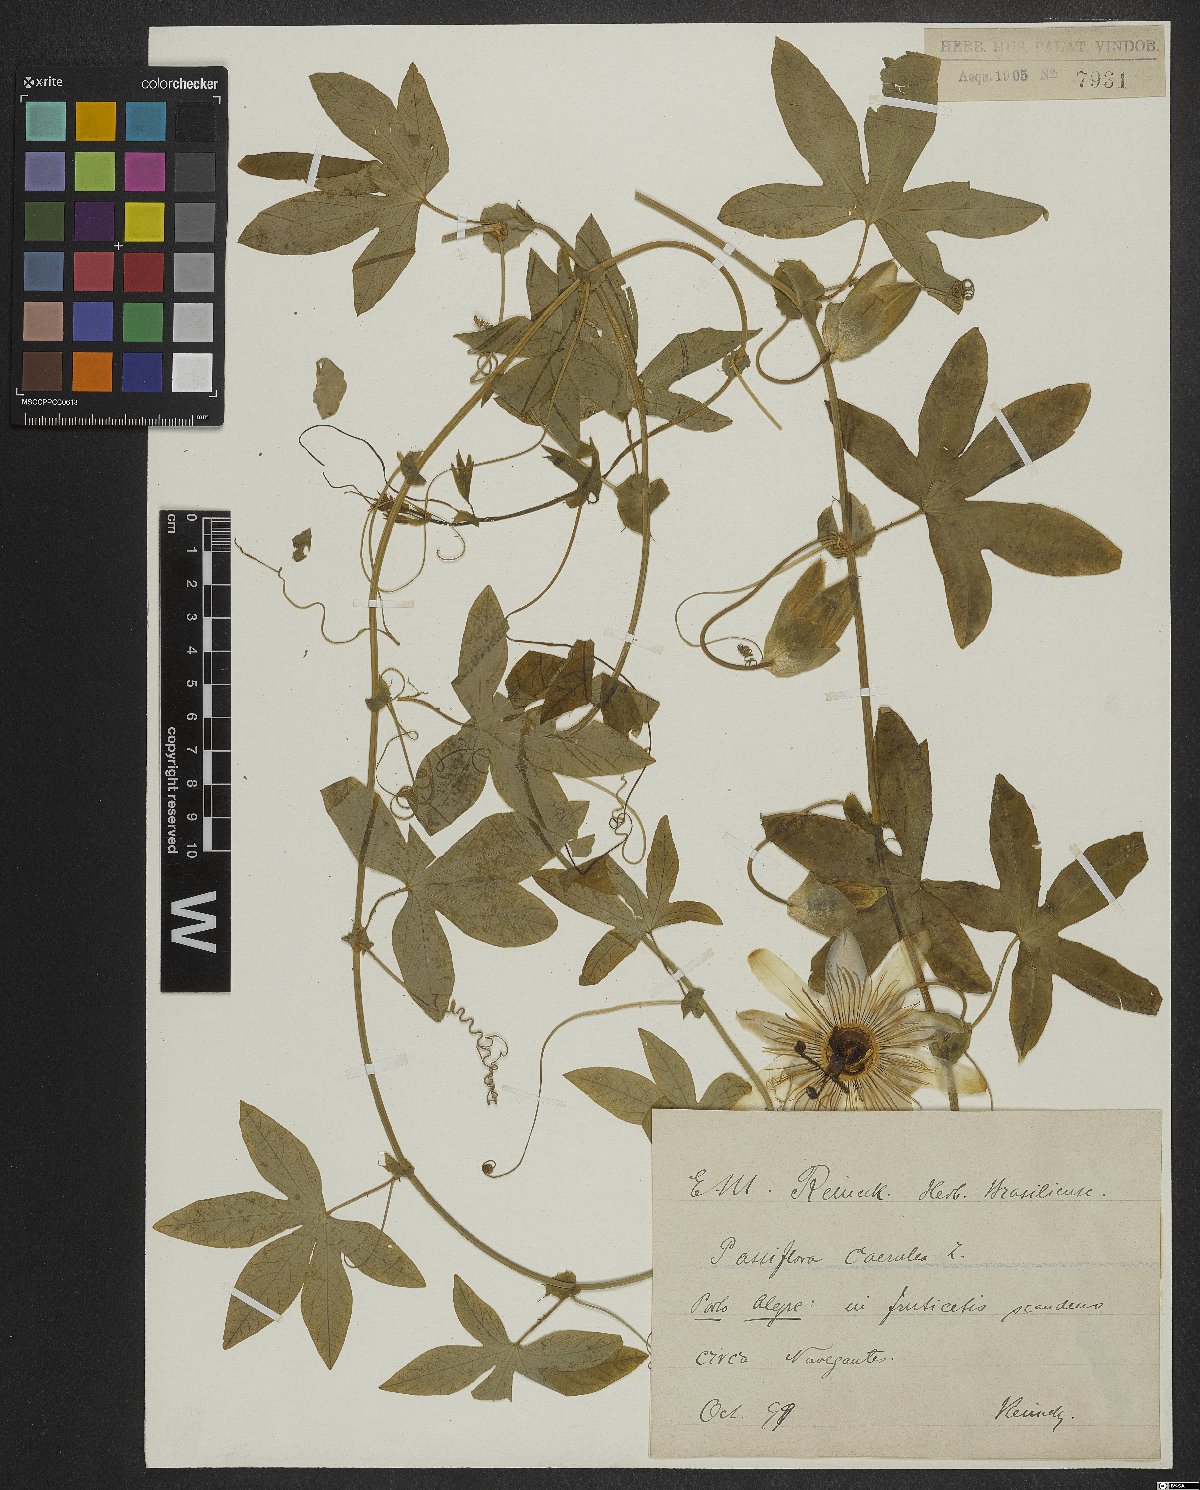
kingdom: Plantae
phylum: Tracheophyta
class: Magnoliopsida
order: Malpighiales
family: Passifloraceae
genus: Passiflora
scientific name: Passiflora caerulea
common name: Blue passionflower
